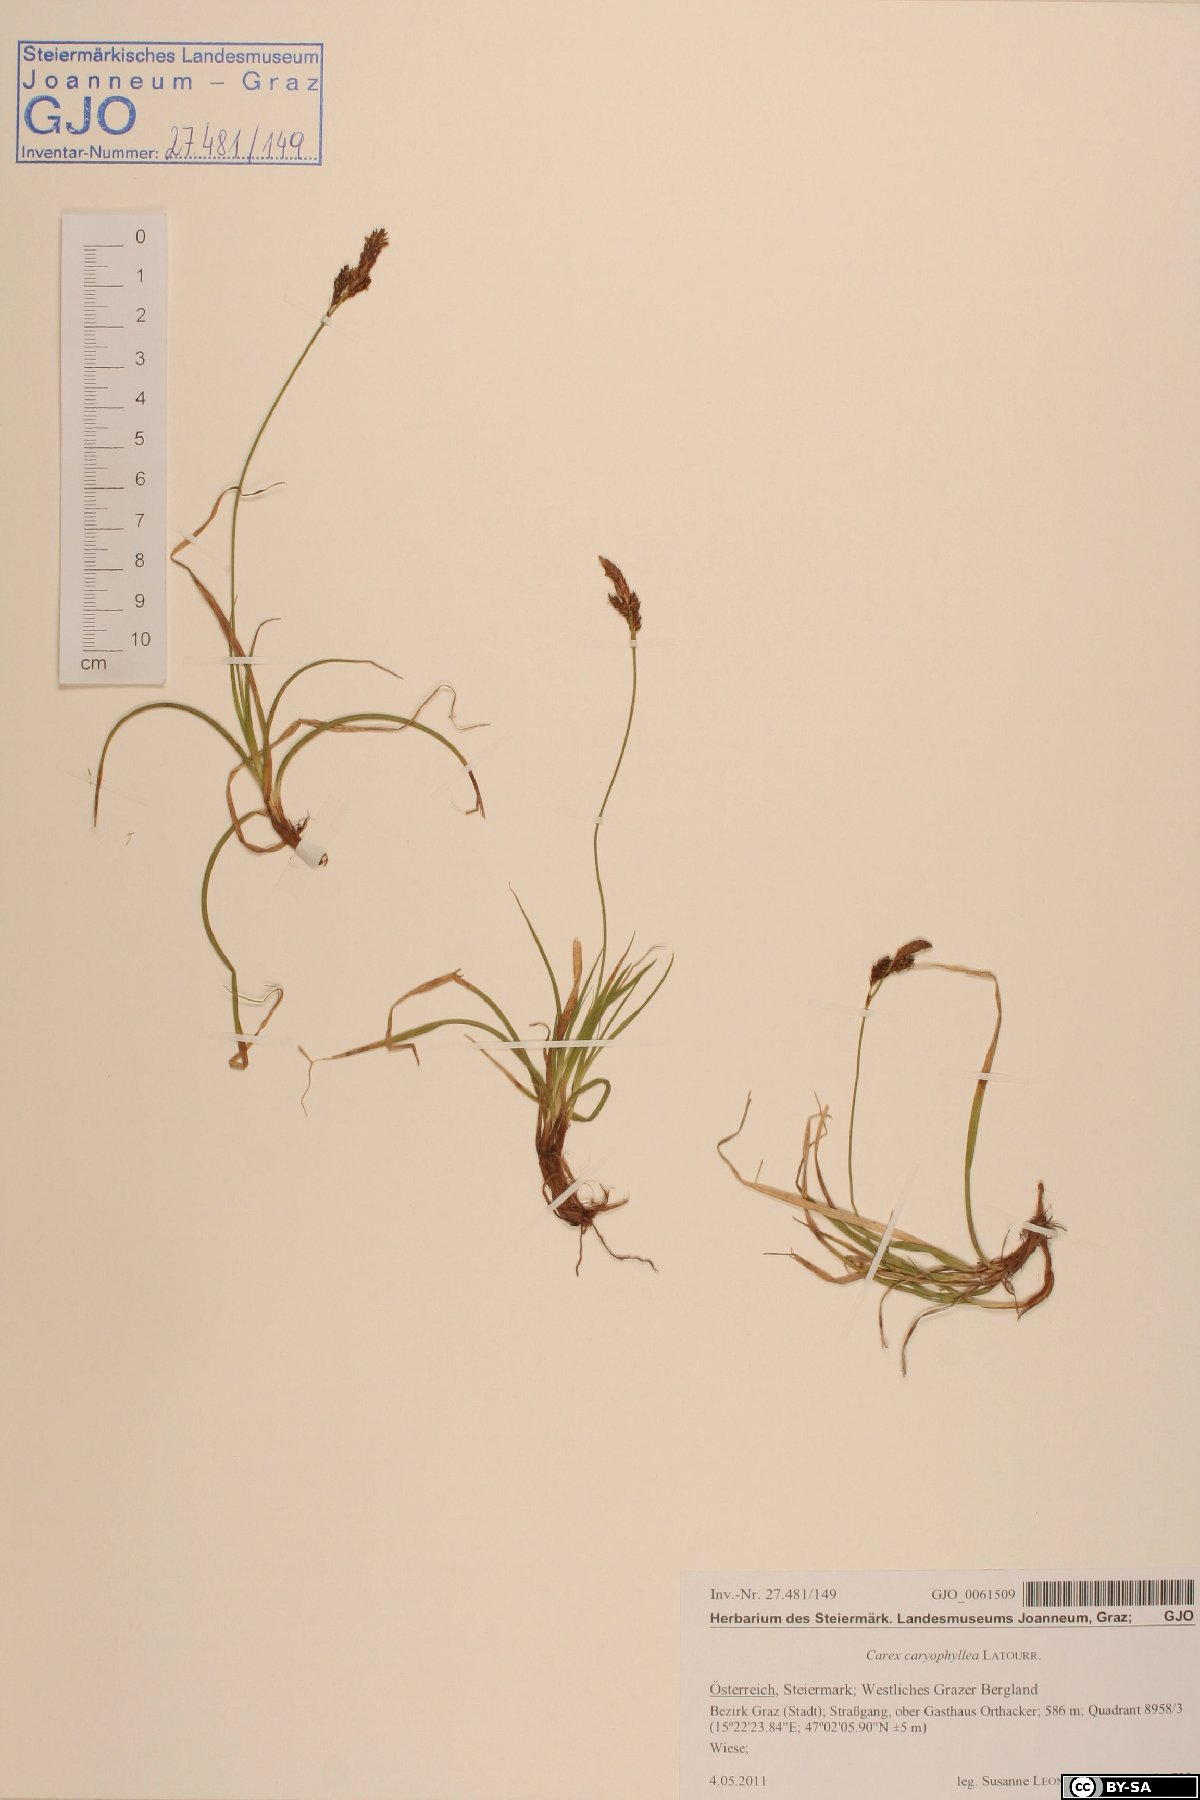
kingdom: Plantae
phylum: Tracheophyta
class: Liliopsida
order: Poales
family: Cyperaceae
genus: Carex
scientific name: Carex caryophyllea
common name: Spring sedge
